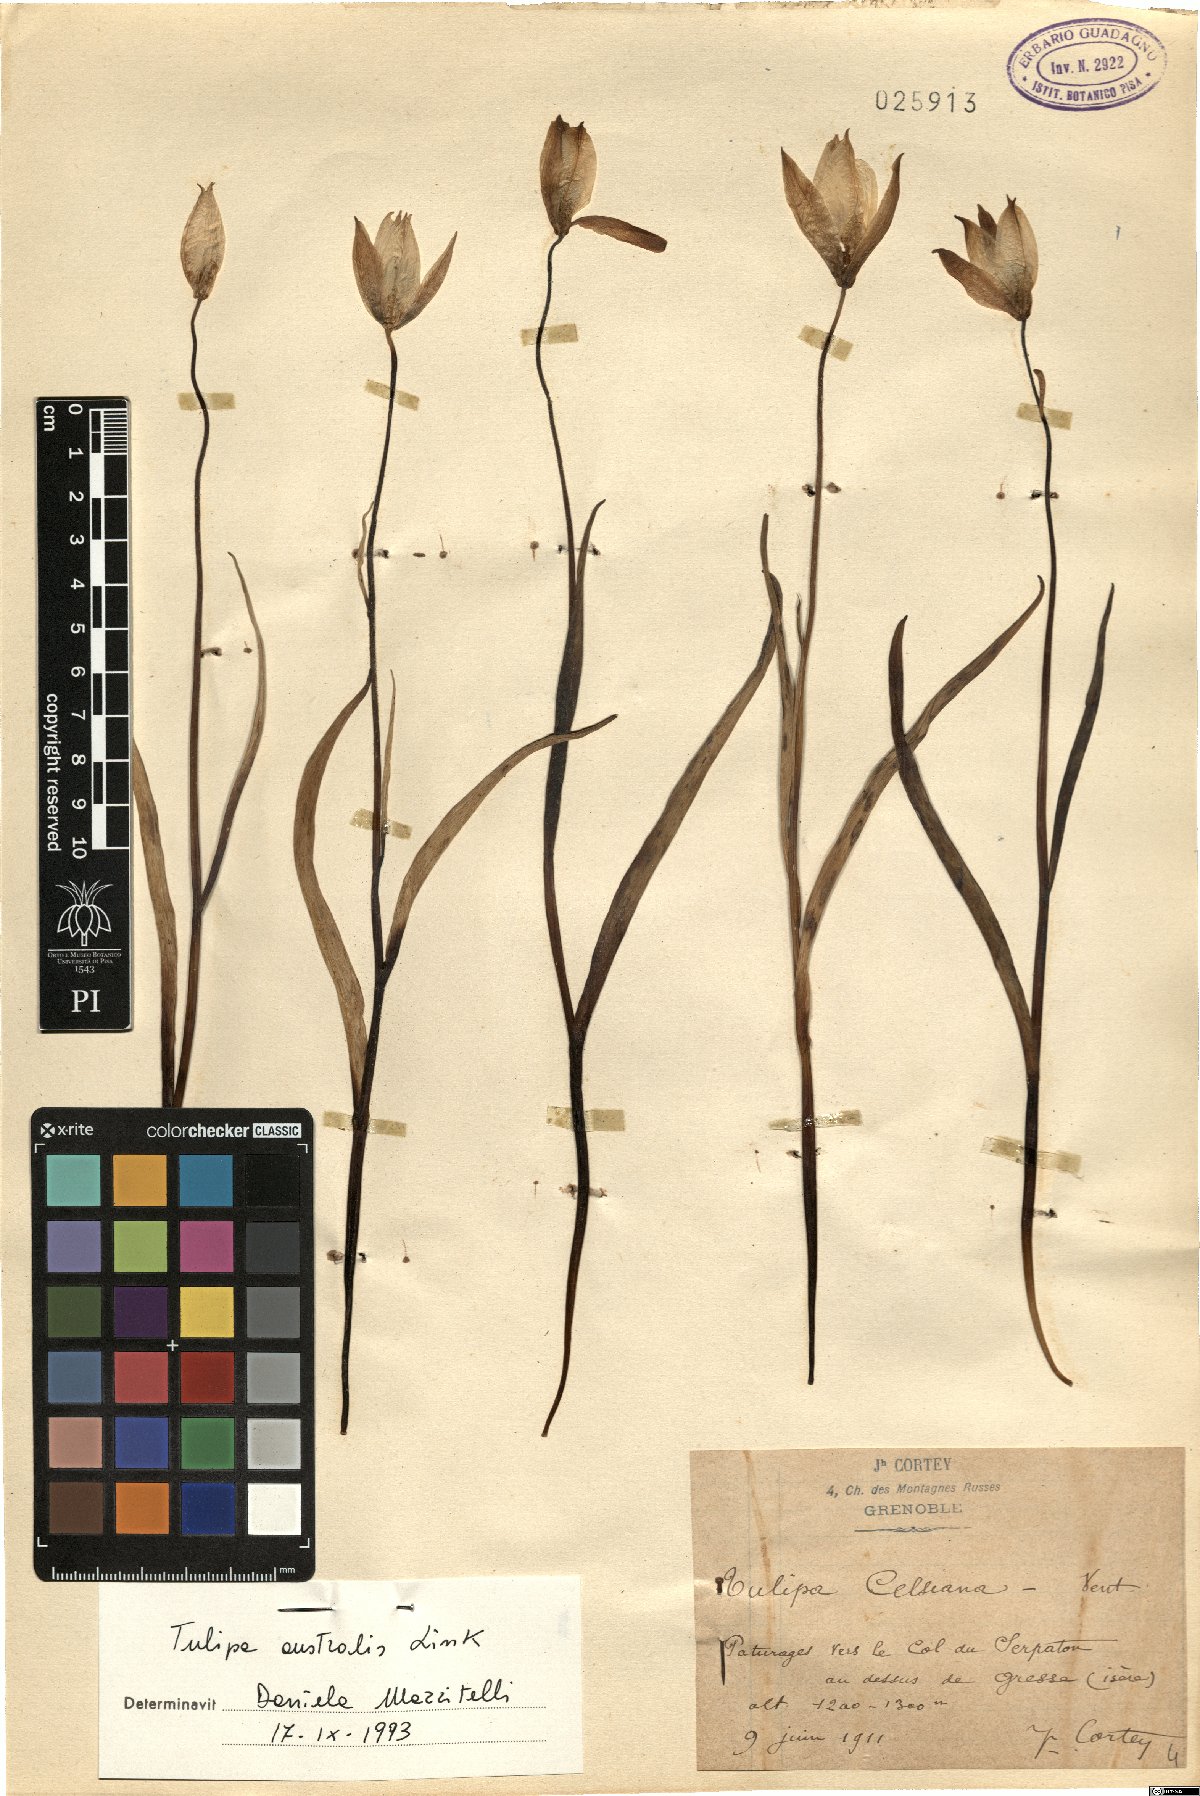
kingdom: Plantae
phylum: Tracheophyta
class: Liliopsida
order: Liliales
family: Liliaceae
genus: Tulipa
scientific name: Tulipa sylvestris
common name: Wild tulip
